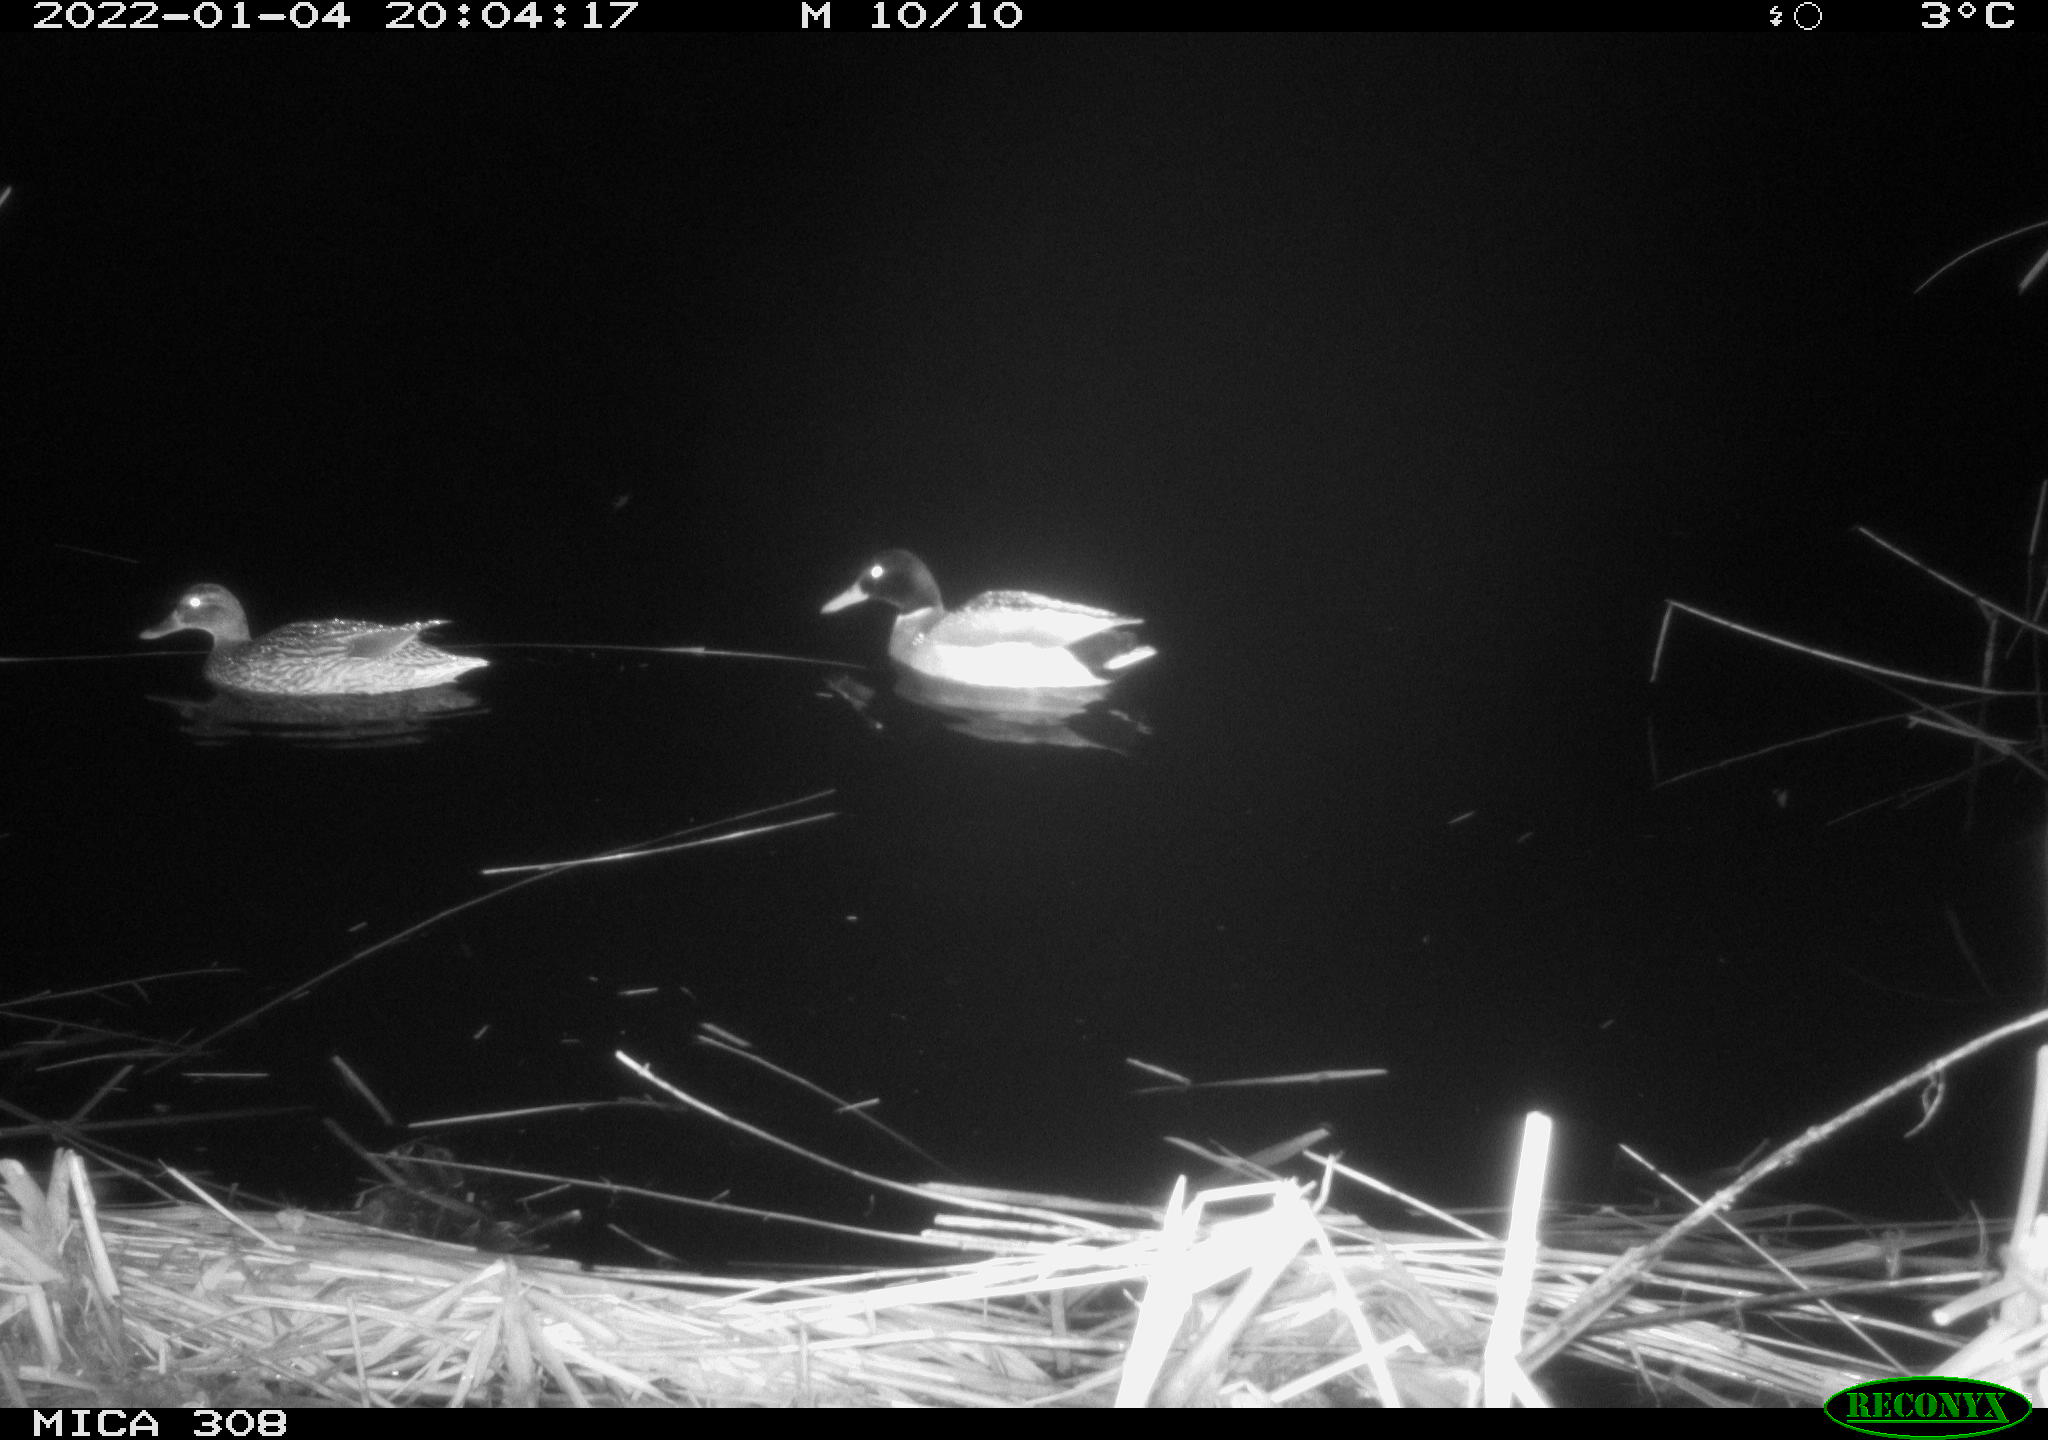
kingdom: Animalia
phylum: Chordata
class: Aves
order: Anseriformes
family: Anatidae
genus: Anas
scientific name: Anas platyrhynchos
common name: Mallard
